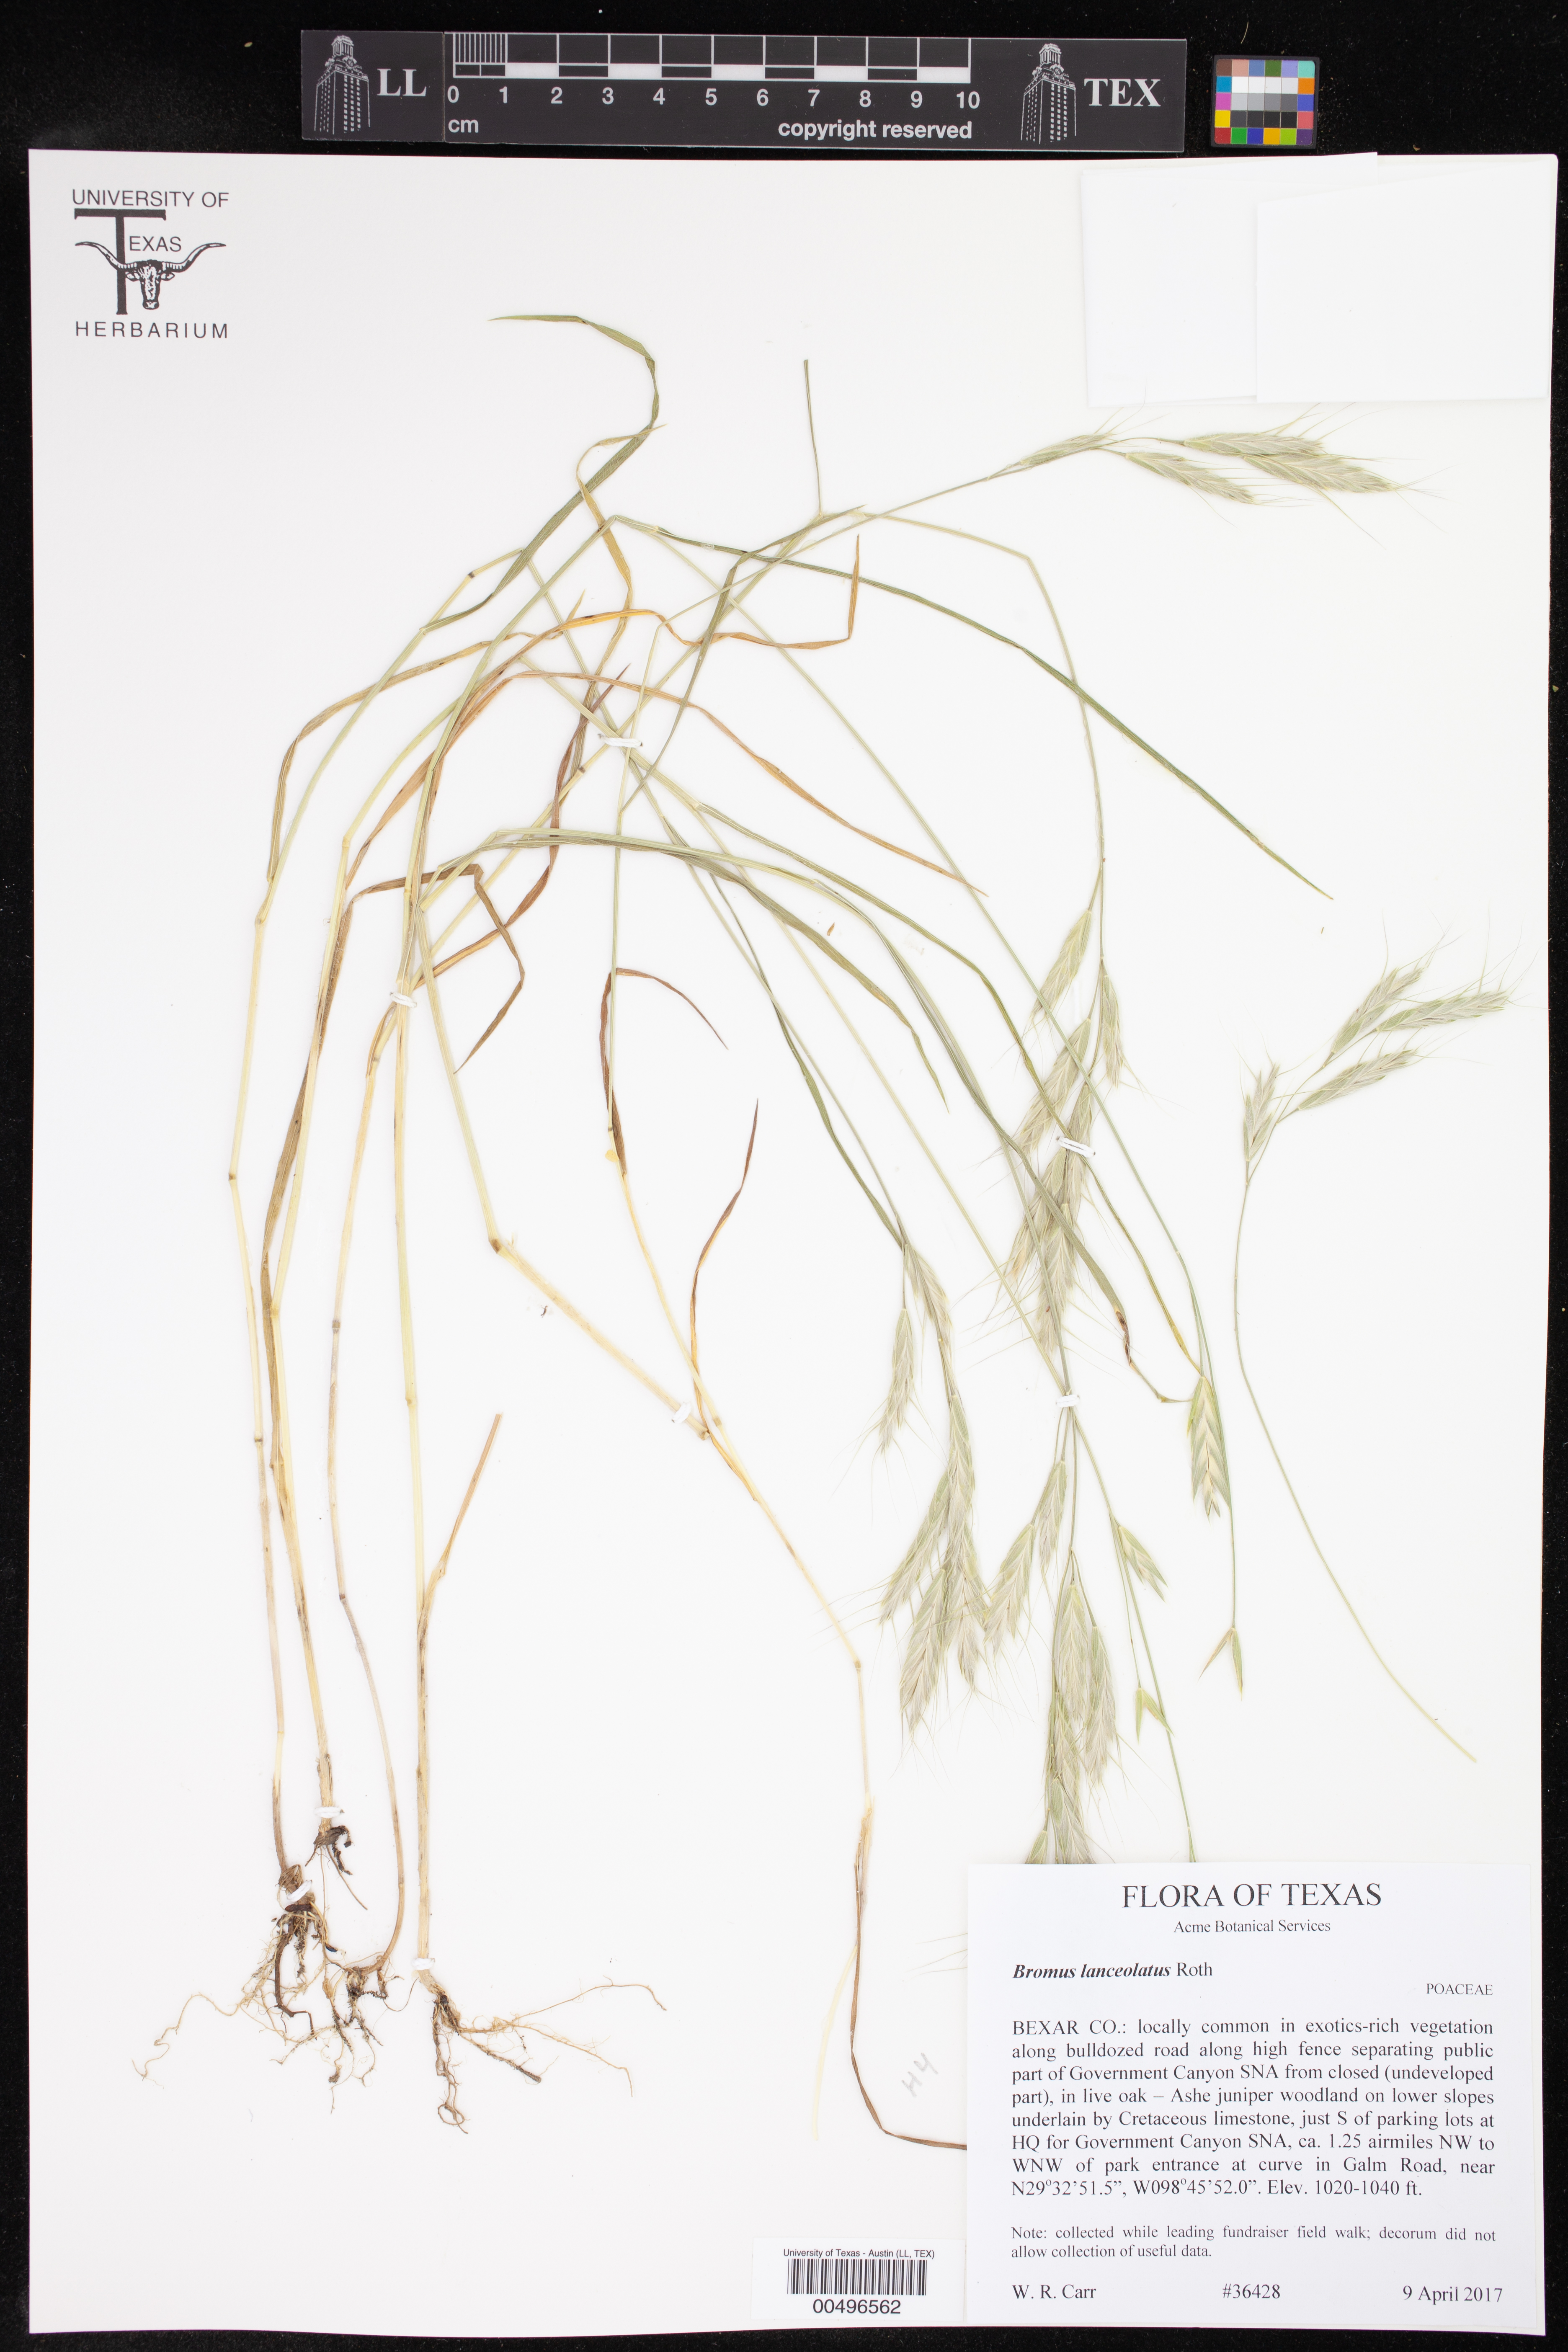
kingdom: Plantae
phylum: Tracheophyta
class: Liliopsida
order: Poales
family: Poaceae
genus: Bromus
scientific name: Bromus lanceolatus
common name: Mediterranean brome
